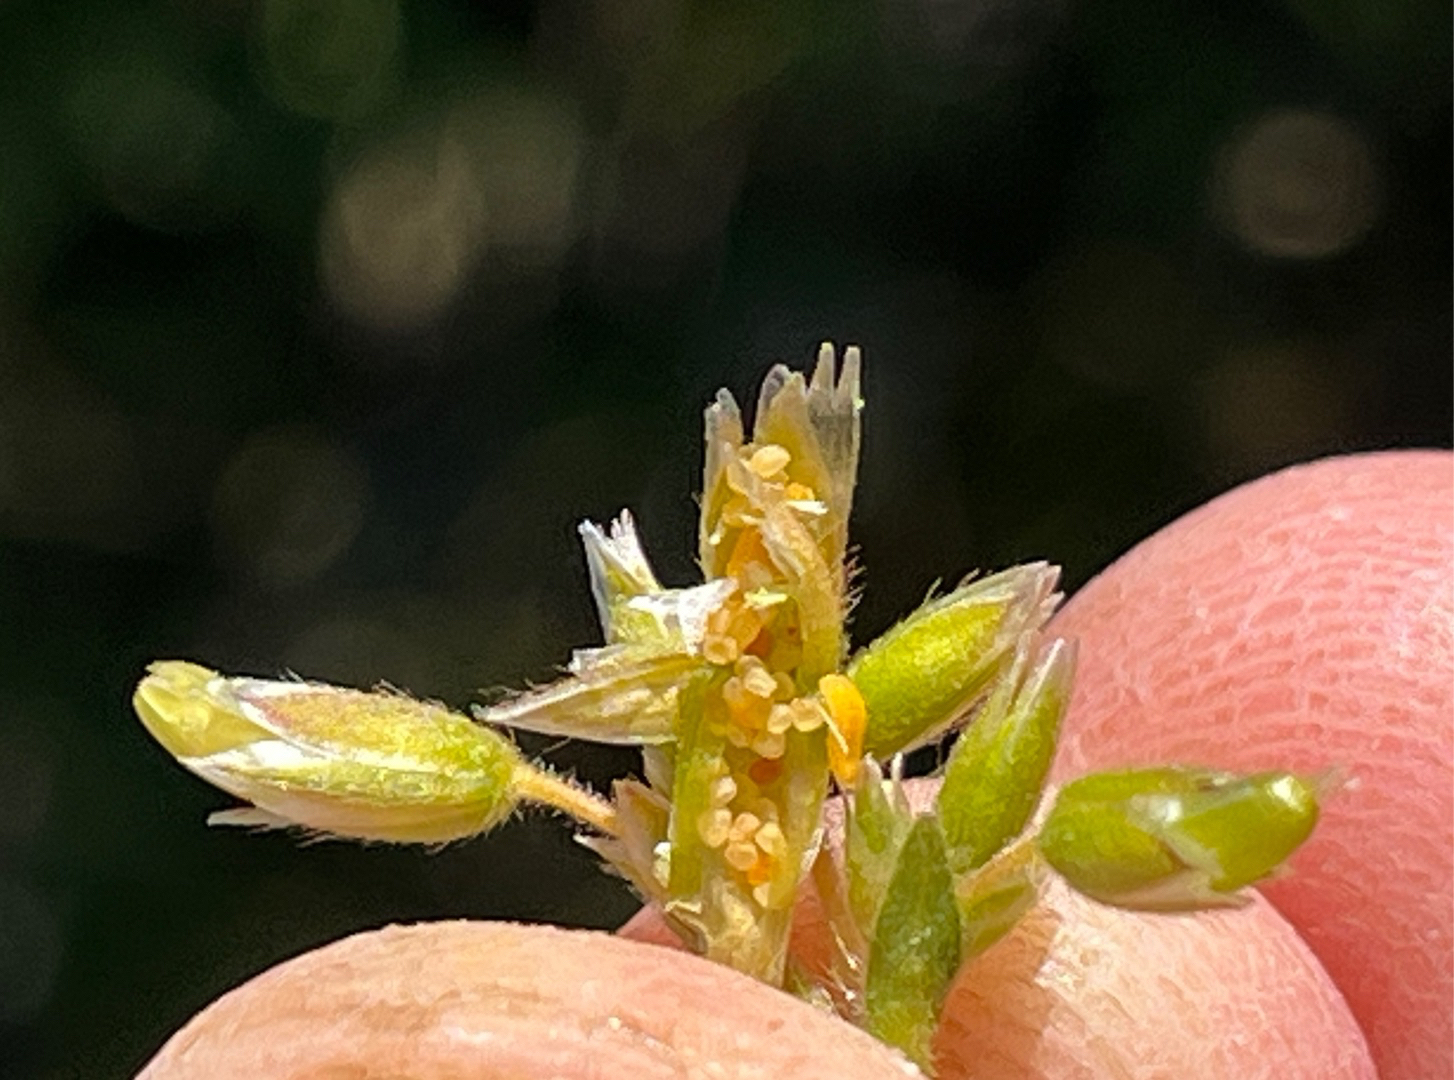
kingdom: Animalia
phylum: Arthropoda
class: Insecta
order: Diptera
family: Cecidomyiidae
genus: Dasineura
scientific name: Dasineura fructum
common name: Hørsetarmkapselgalmyg
